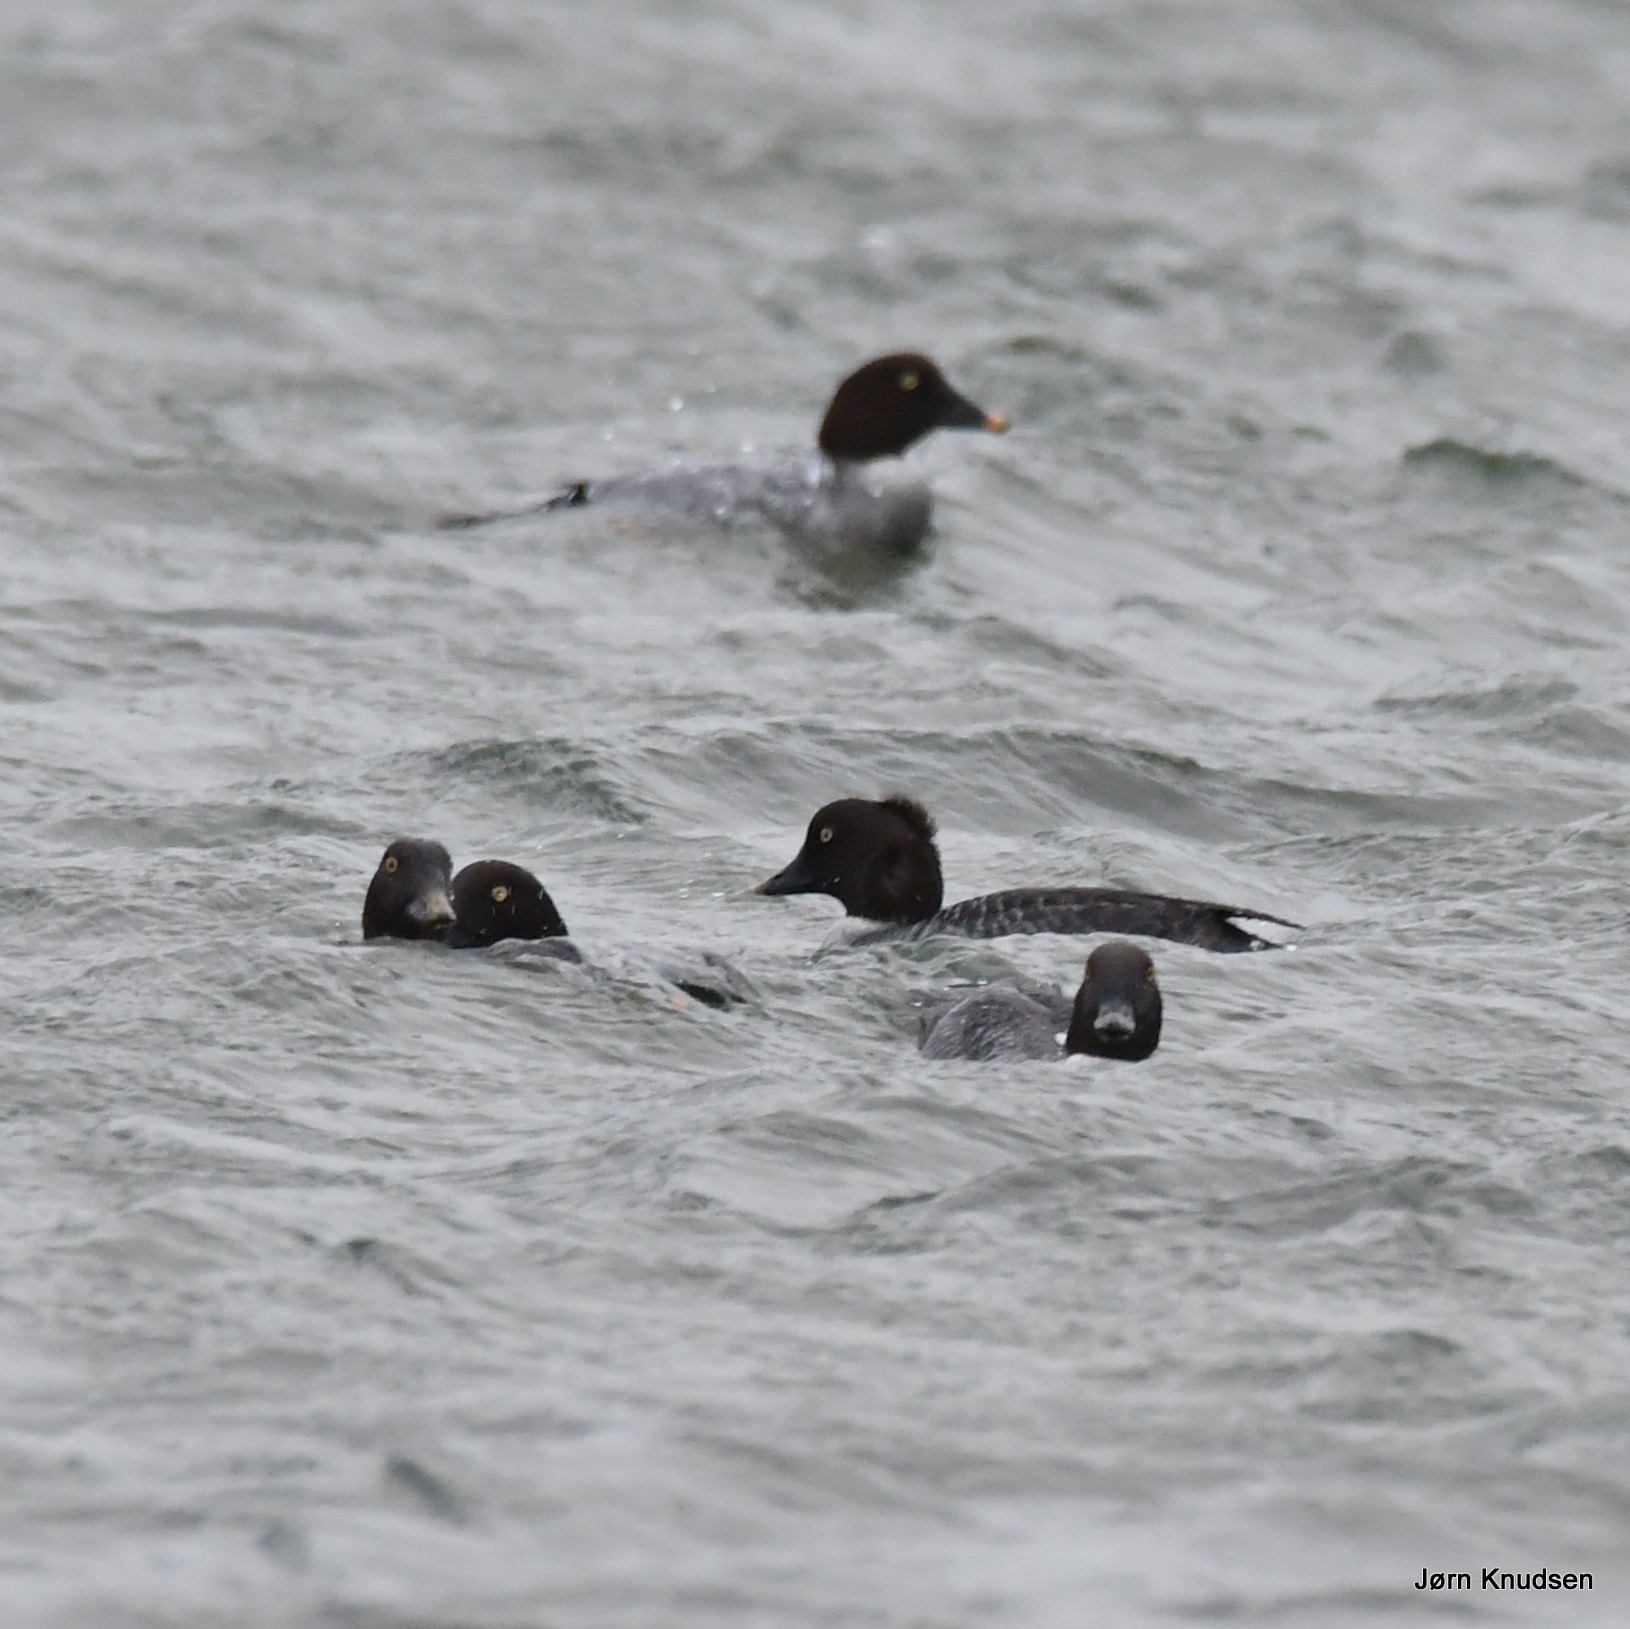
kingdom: Animalia
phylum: Chordata
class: Aves
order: Anseriformes
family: Anatidae
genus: Bucephala
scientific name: Bucephala clangula
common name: Hvinand
